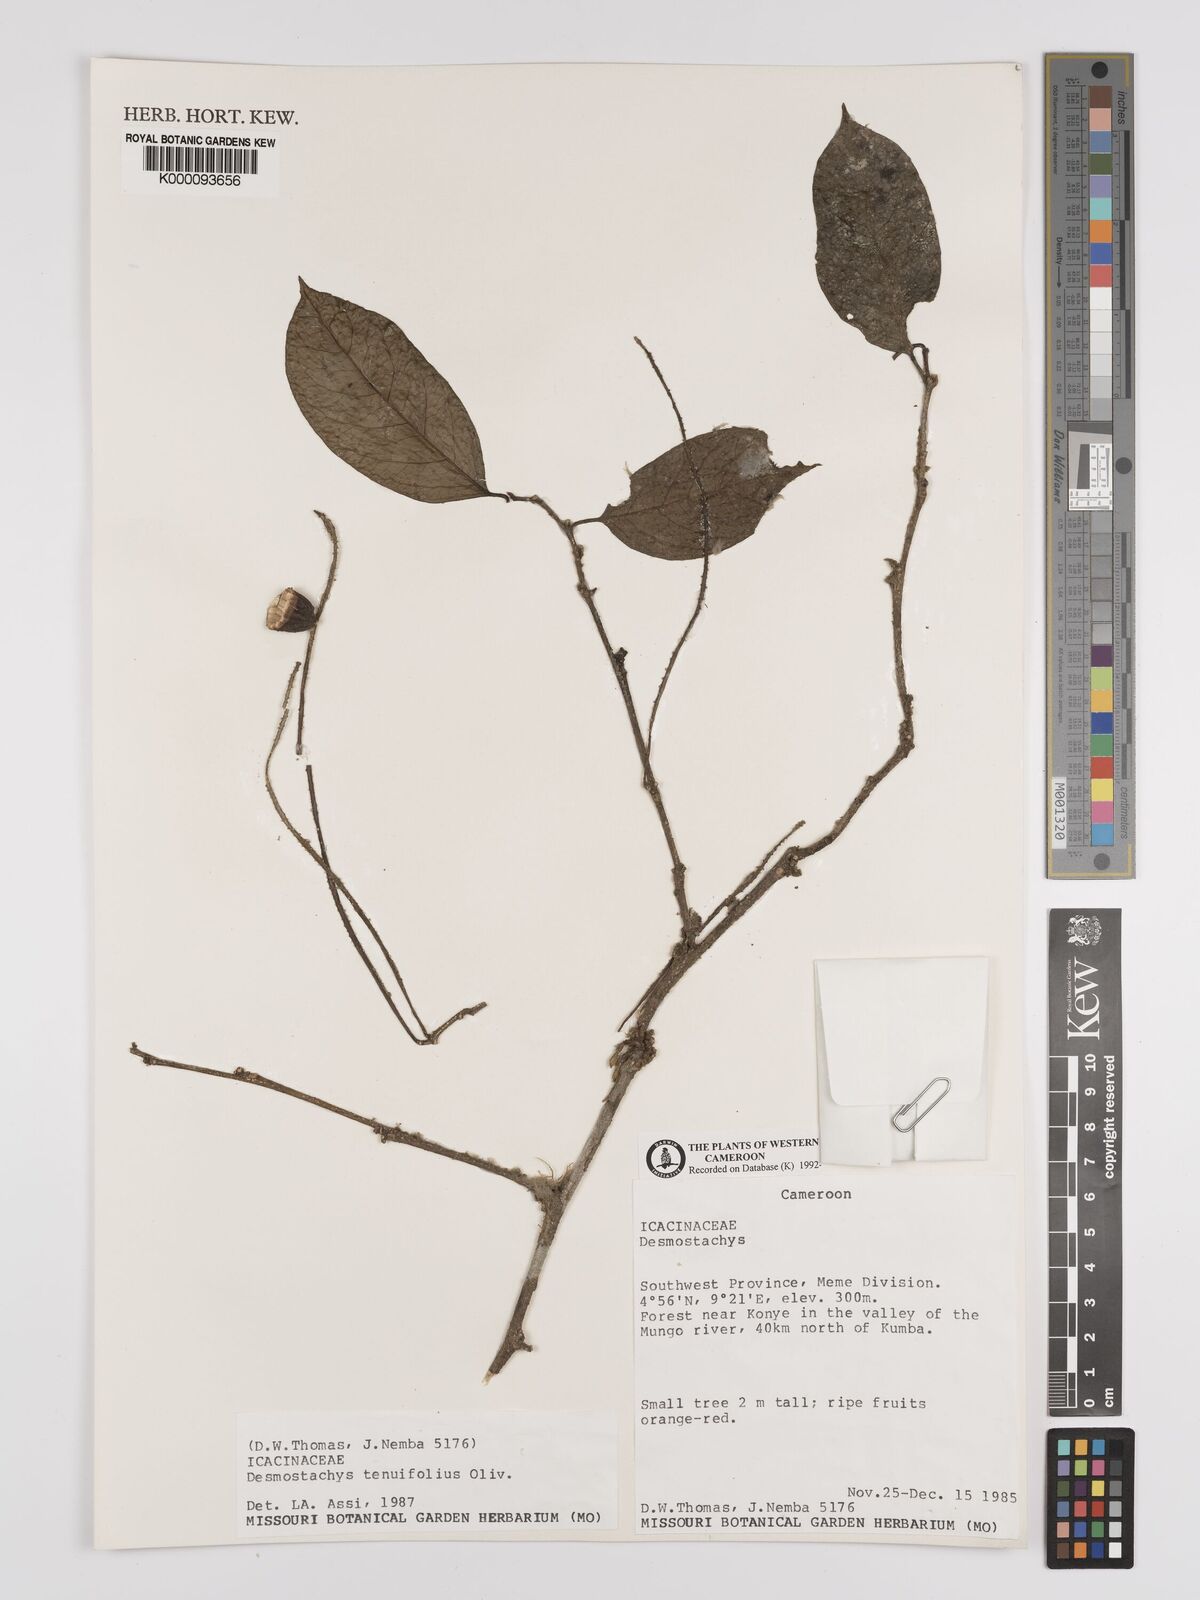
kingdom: Plantae
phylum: Tracheophyta
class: Magnoliopsida
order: Icacinales
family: Icacinaceae
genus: Vadensea
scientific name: Vadensea tenuifolia
